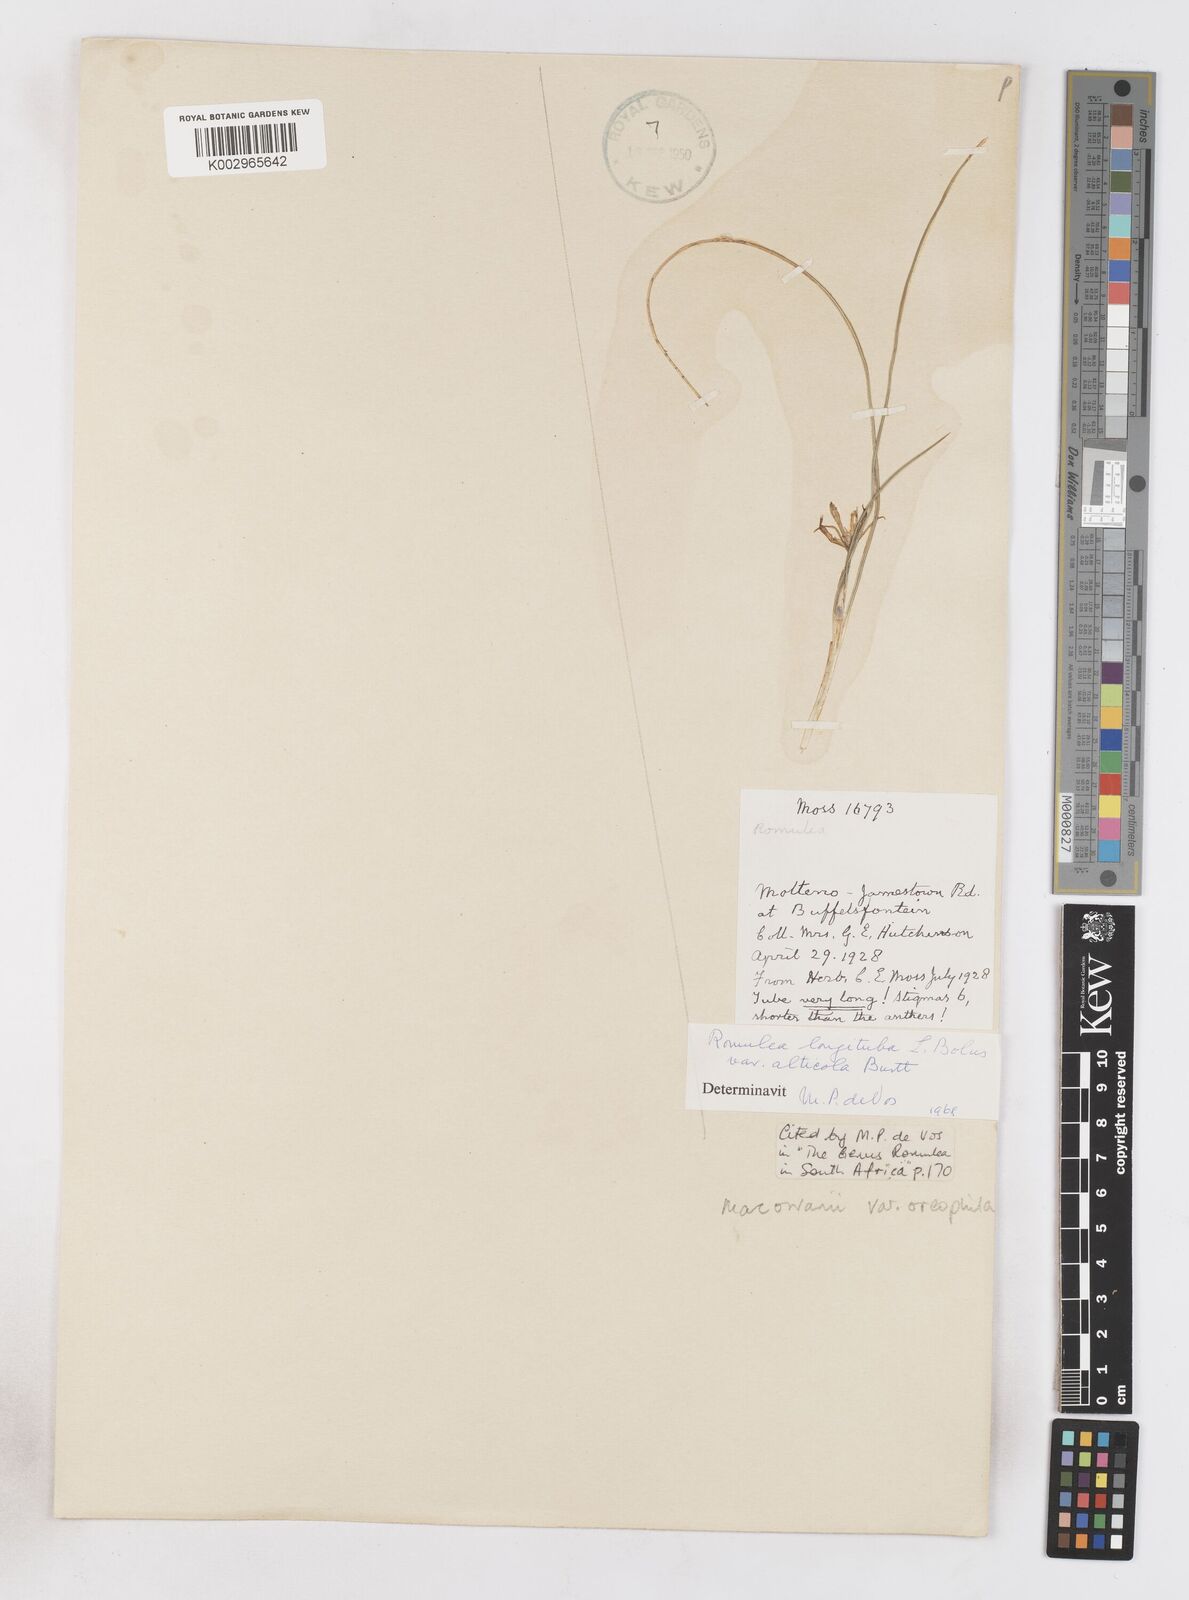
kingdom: Plantae
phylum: Tracheophyta
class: Liliopsida
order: Asparagales
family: Iridaceae
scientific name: Iridaceae
